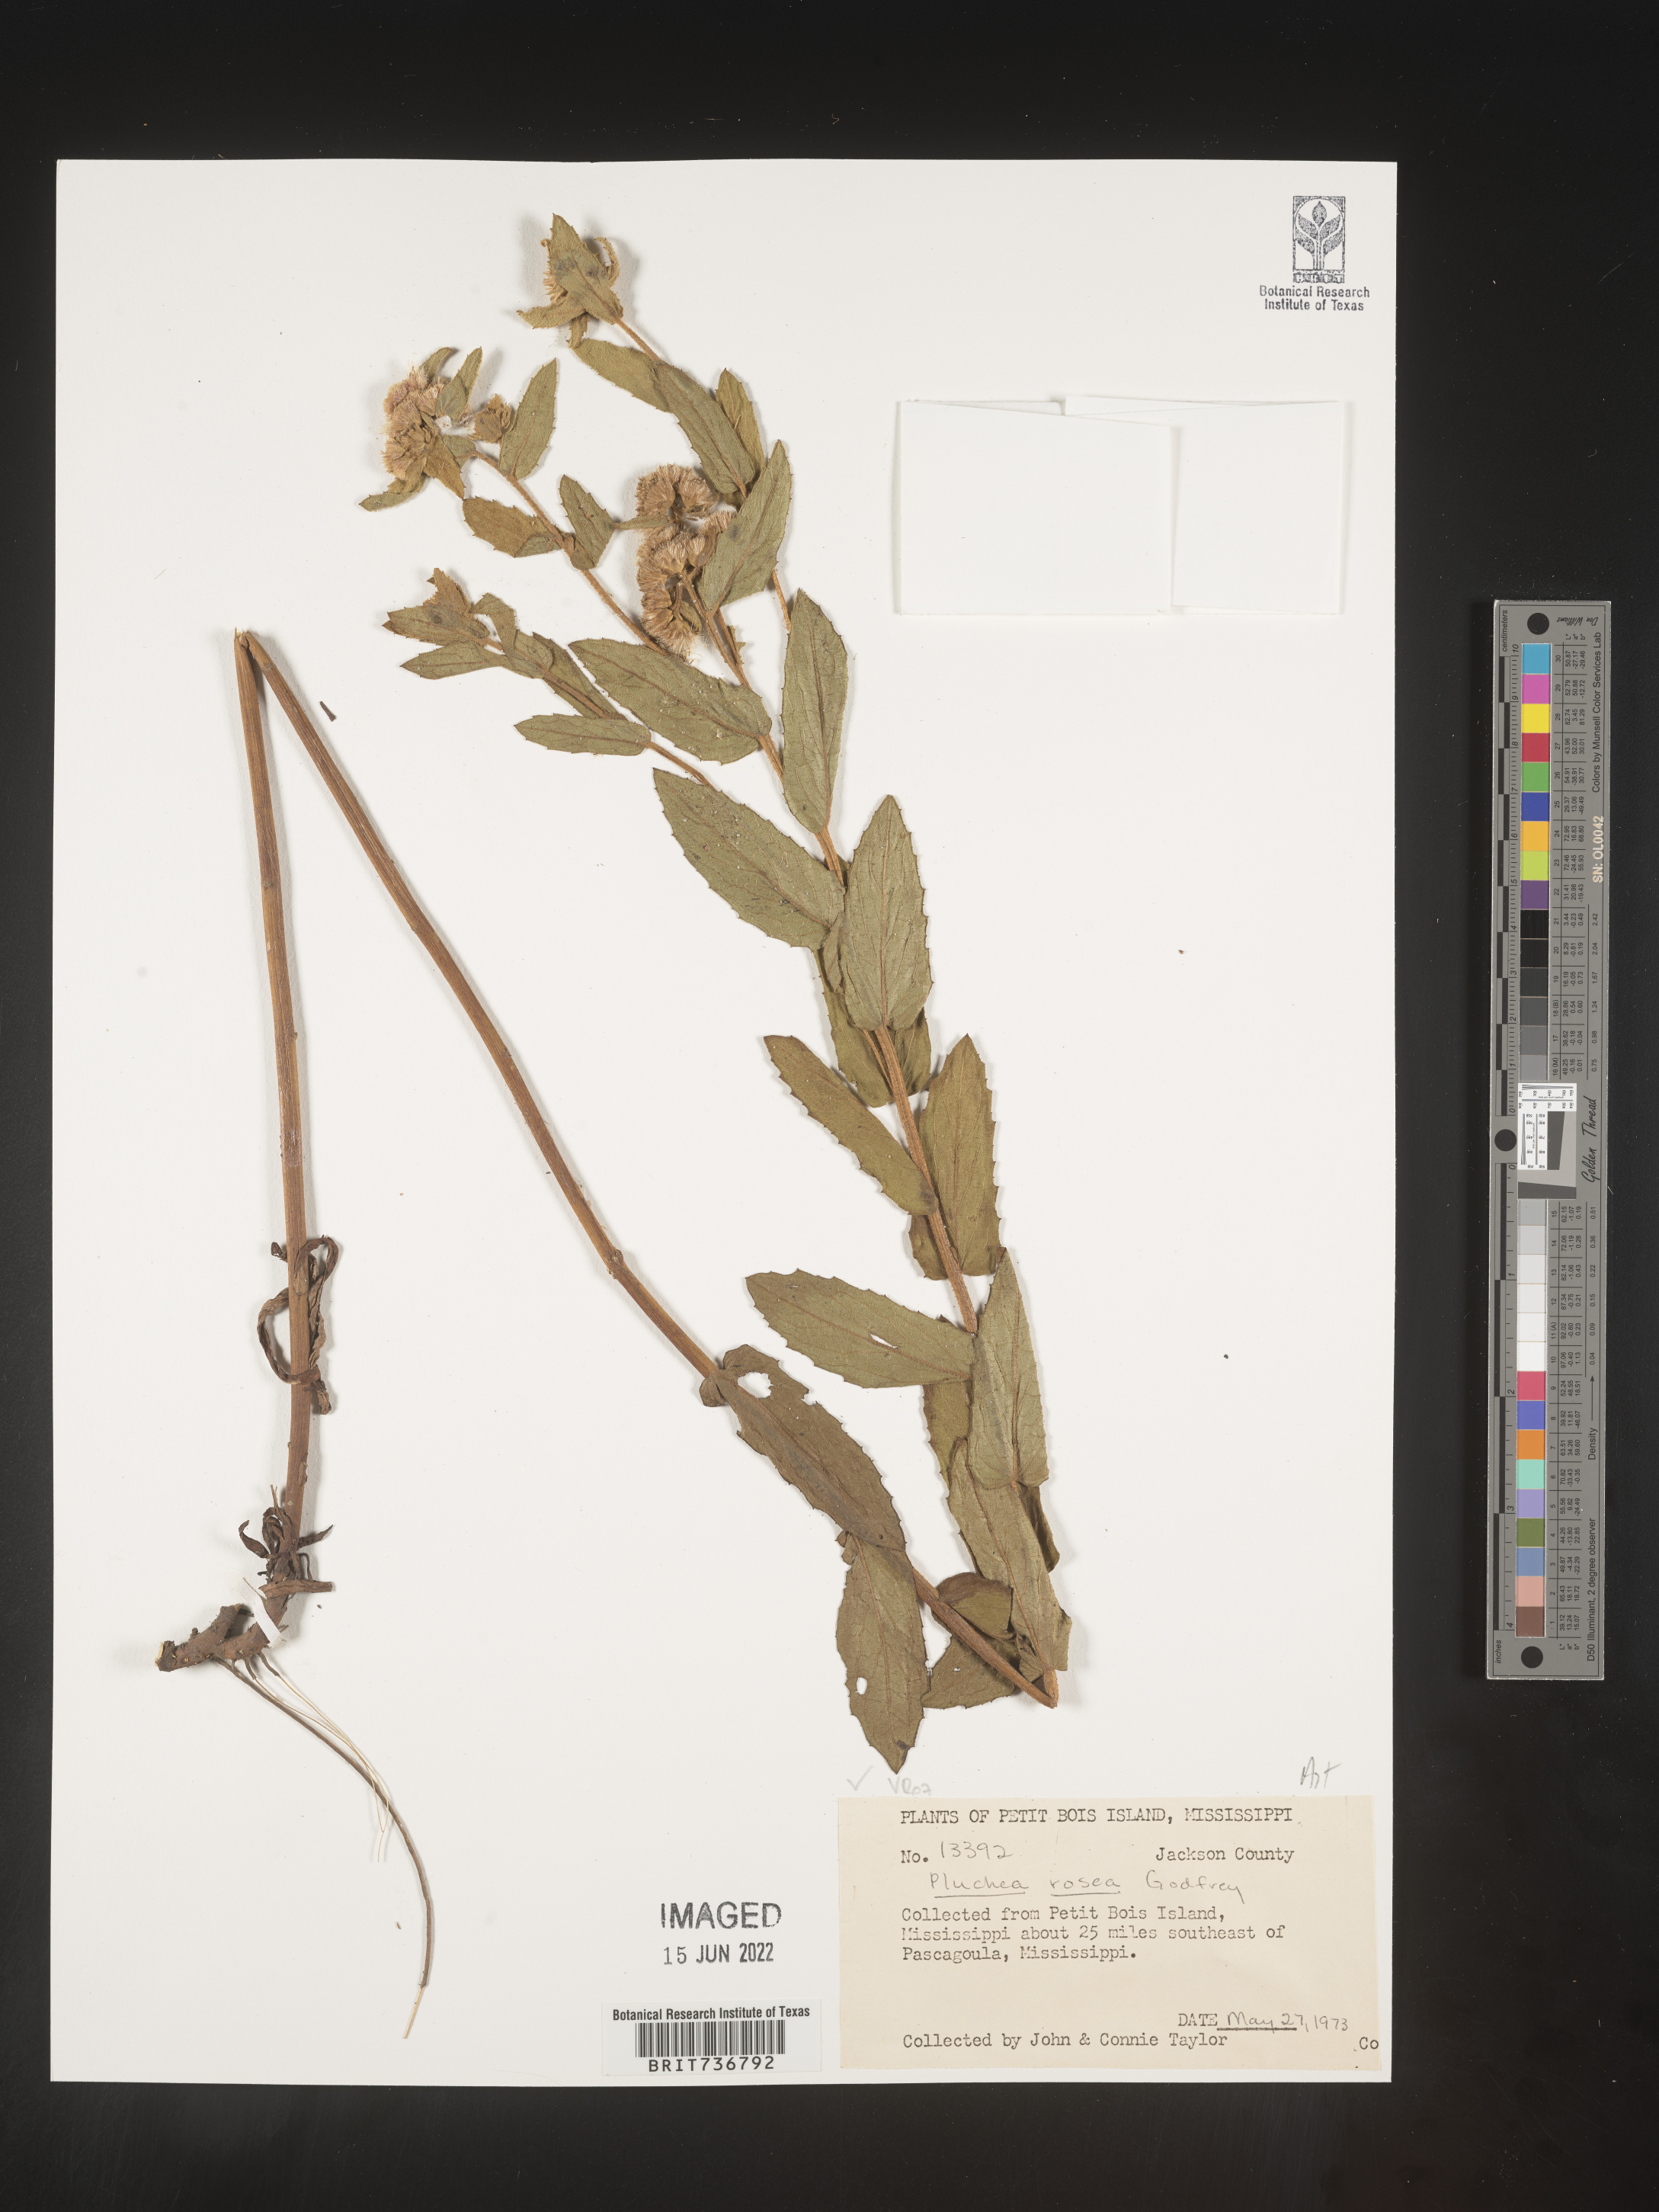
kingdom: Plantae
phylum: Tracheophyta
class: Magnoliopsida
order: Asterales
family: Asteraceae
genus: Pluchea
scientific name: Pluchea baccharis
